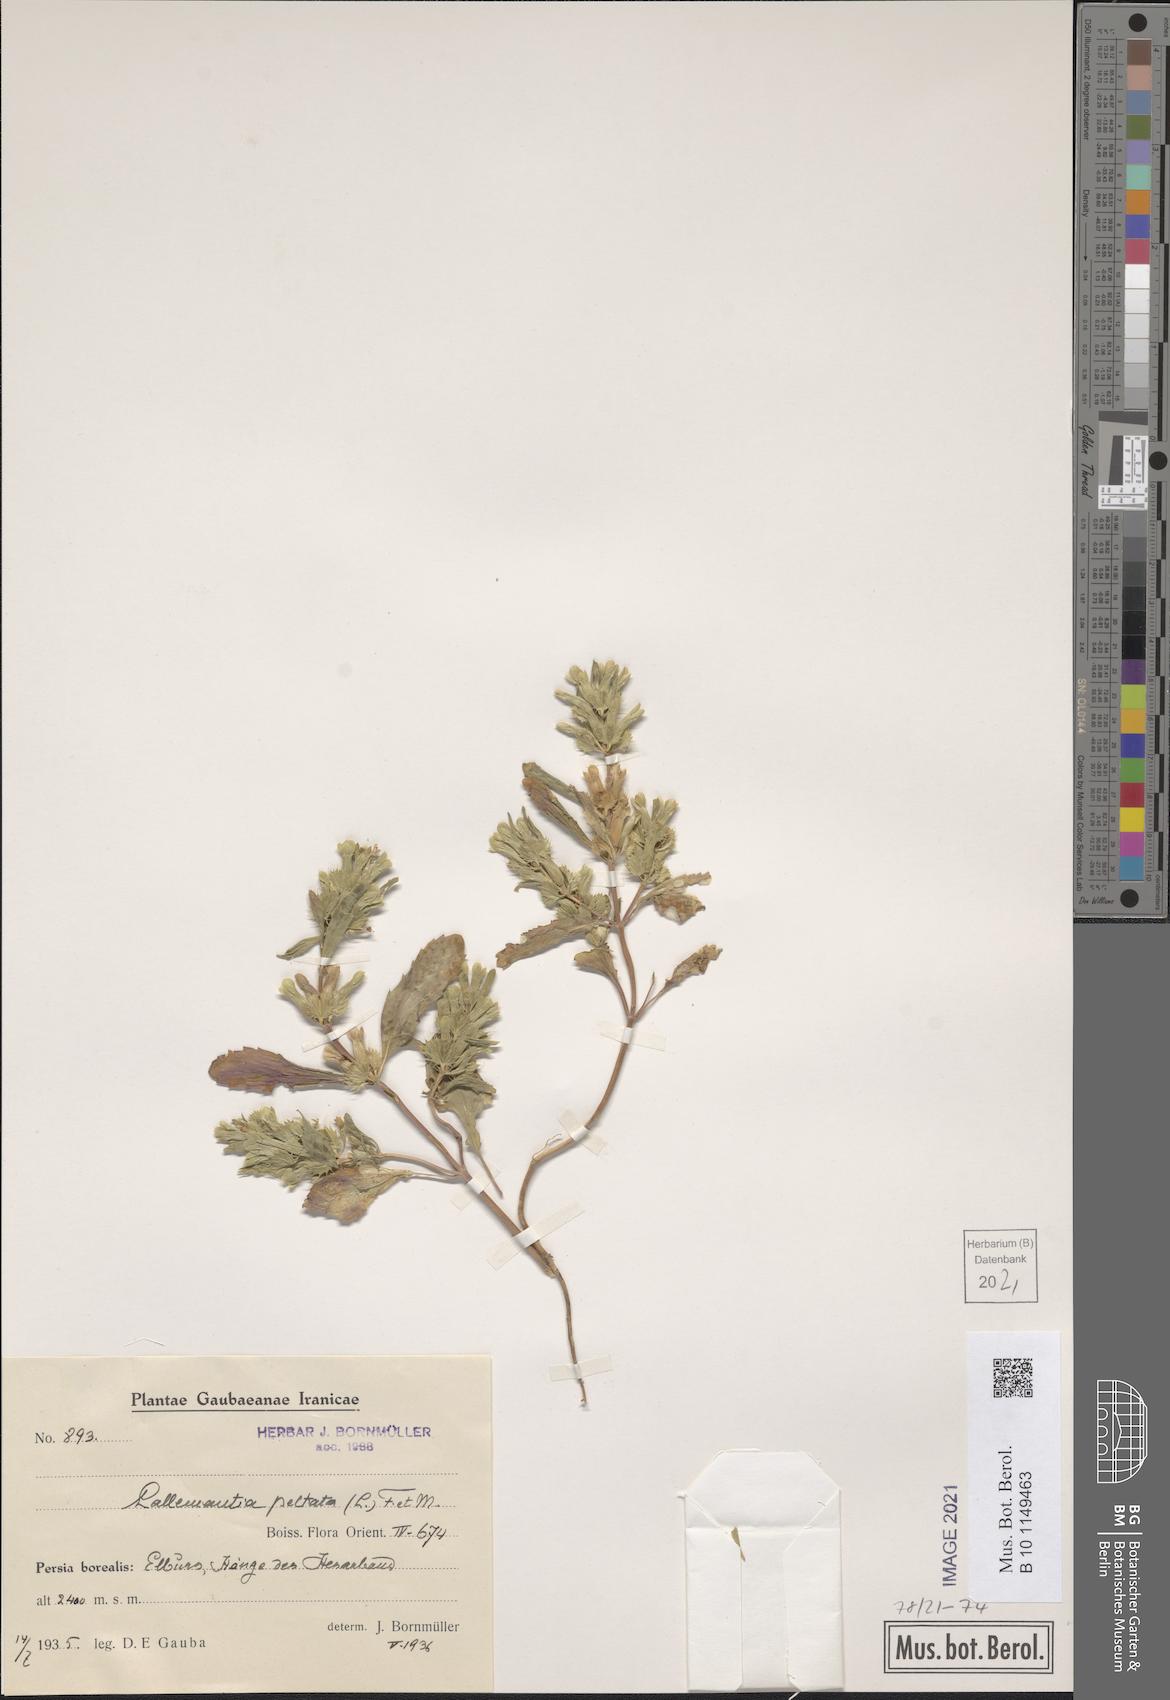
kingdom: Plantae
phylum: Tracheophyta
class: Magnoliopsida
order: Lamiales
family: Lamiaceae
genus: Lallemantia
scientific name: Lallemantia peltata
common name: Lion's heart
